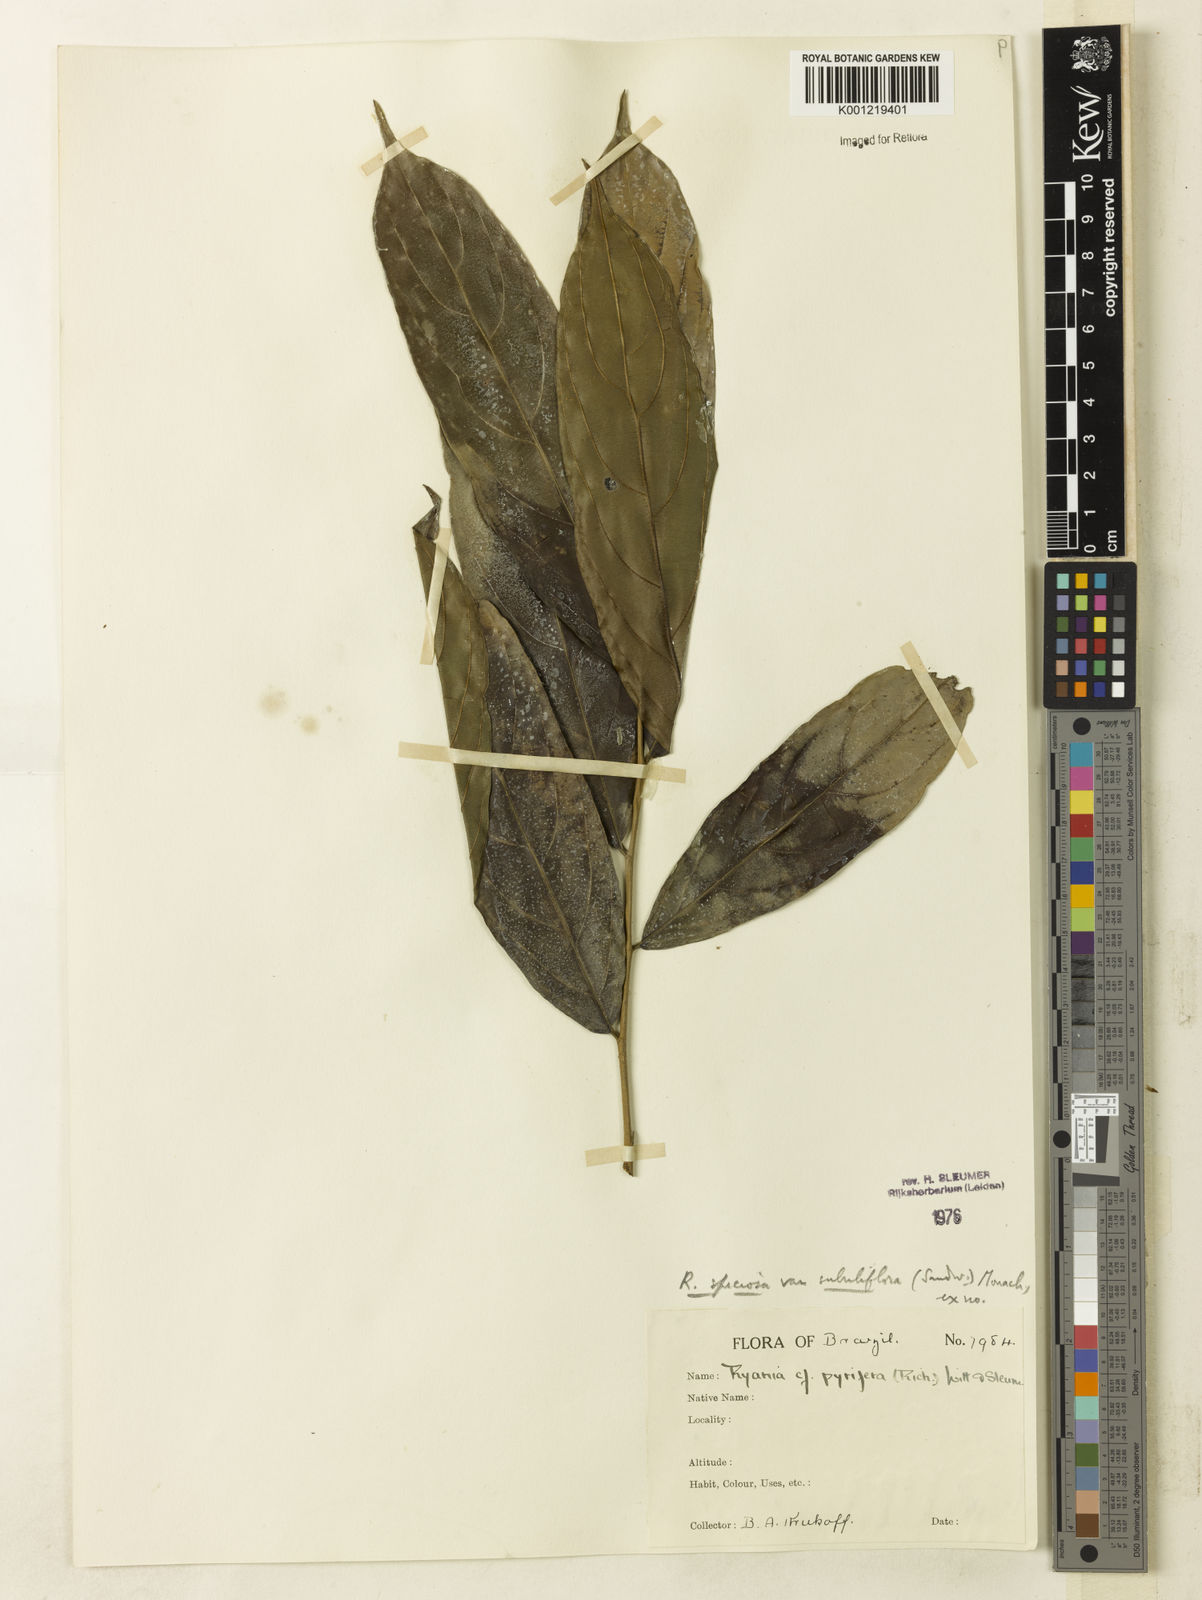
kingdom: Plantae
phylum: Tracheophyta
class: Magnoliopsida
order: Malpighiales
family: Salicaceae
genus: Ryania
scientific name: Ryania speciosa
